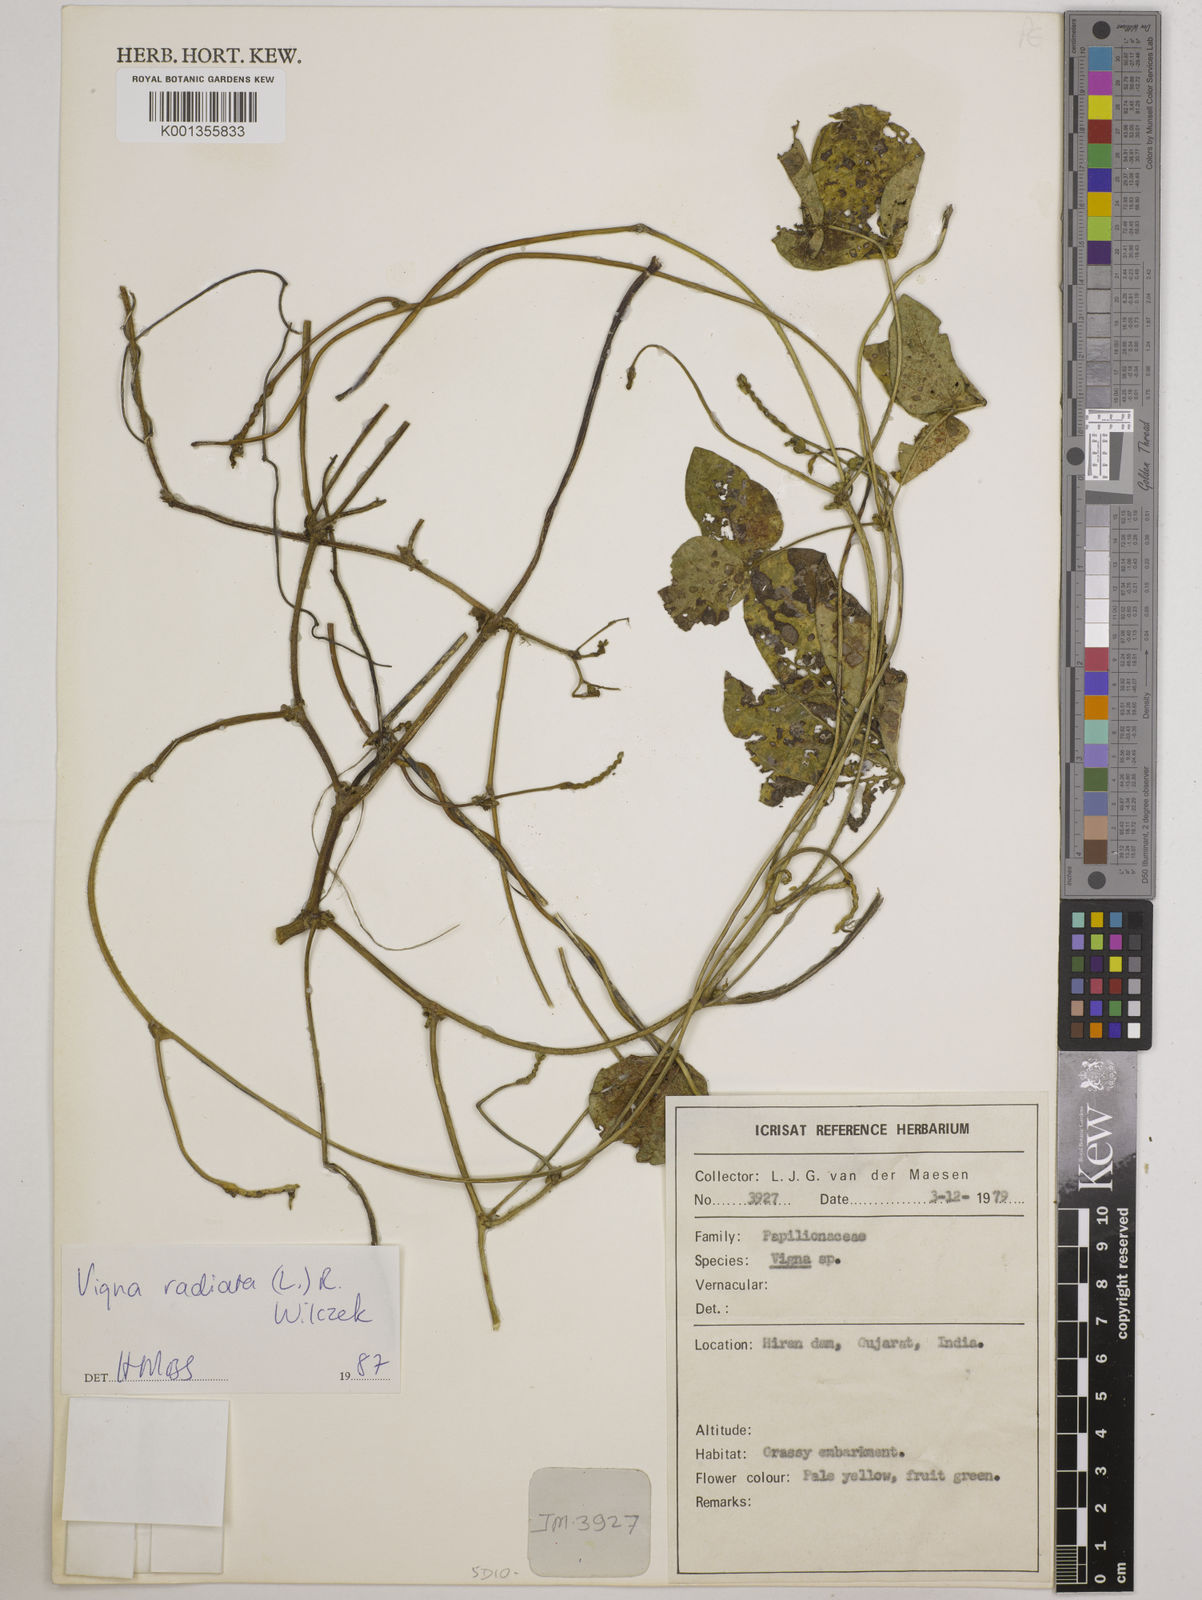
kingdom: Plantae
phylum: Tracheophyta
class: Magnoliopsida
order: Fabales
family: Fabaceae
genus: Vigna
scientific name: Vigna radiata
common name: Mung-bean
